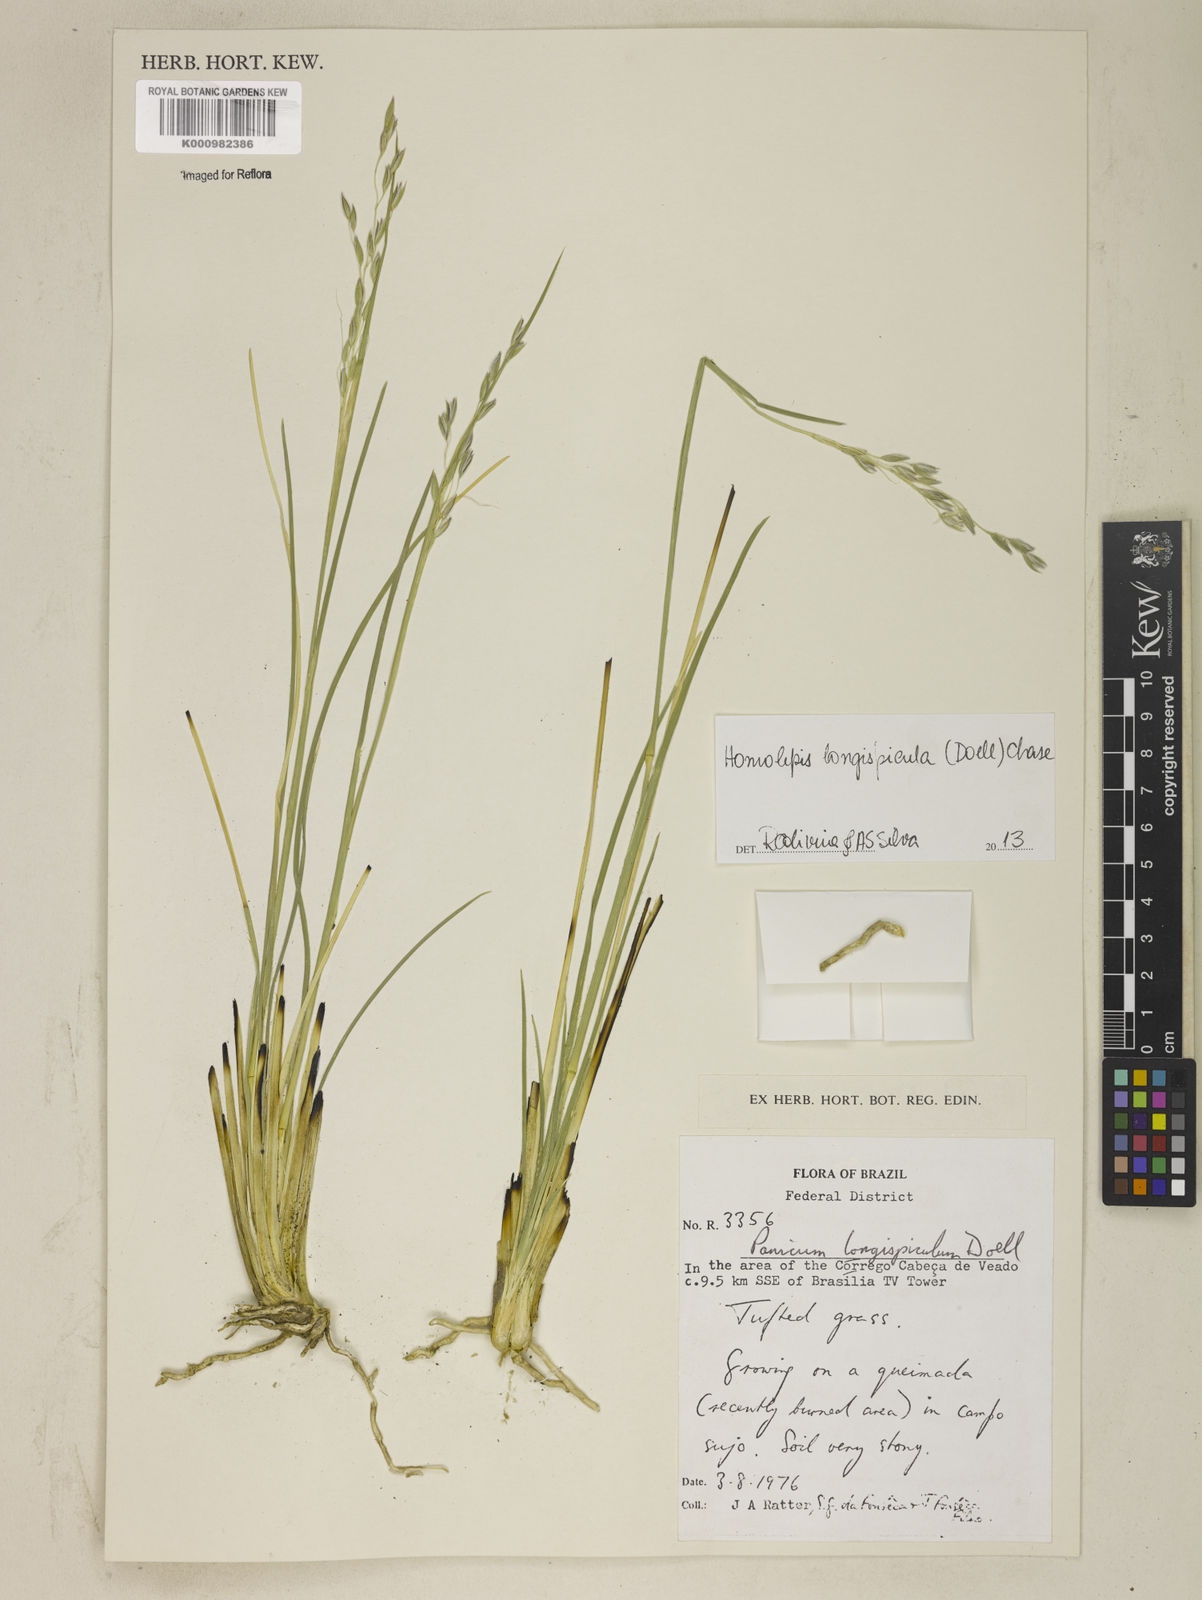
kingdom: Plantae
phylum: Tracheophyta
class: Liliopsida
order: Poales
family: Poaceae
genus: Homolepis
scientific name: Homolepis
